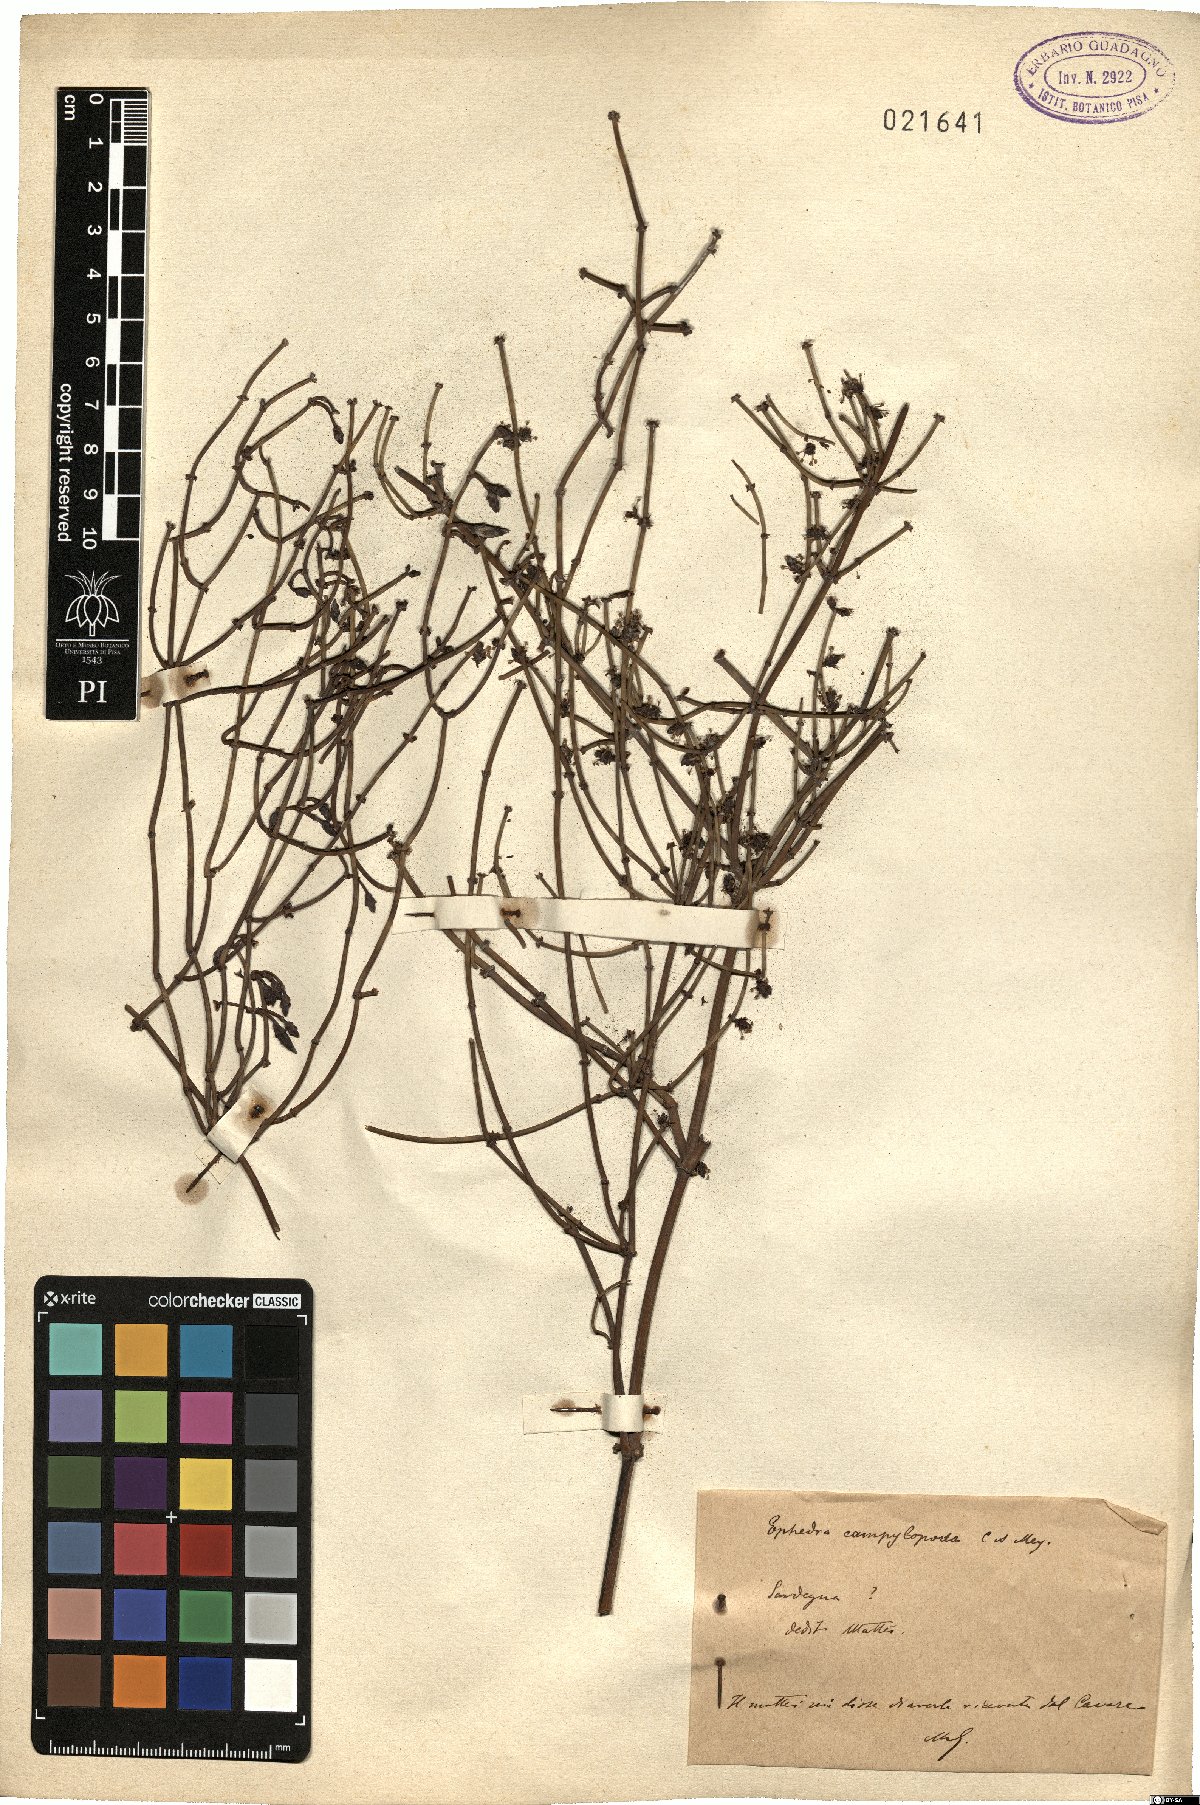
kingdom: Plantae
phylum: Tracheophyta
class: Gnetopsida
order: Ephedrales
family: Ephedraceae
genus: Ephedra
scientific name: Ephedra foeminea
